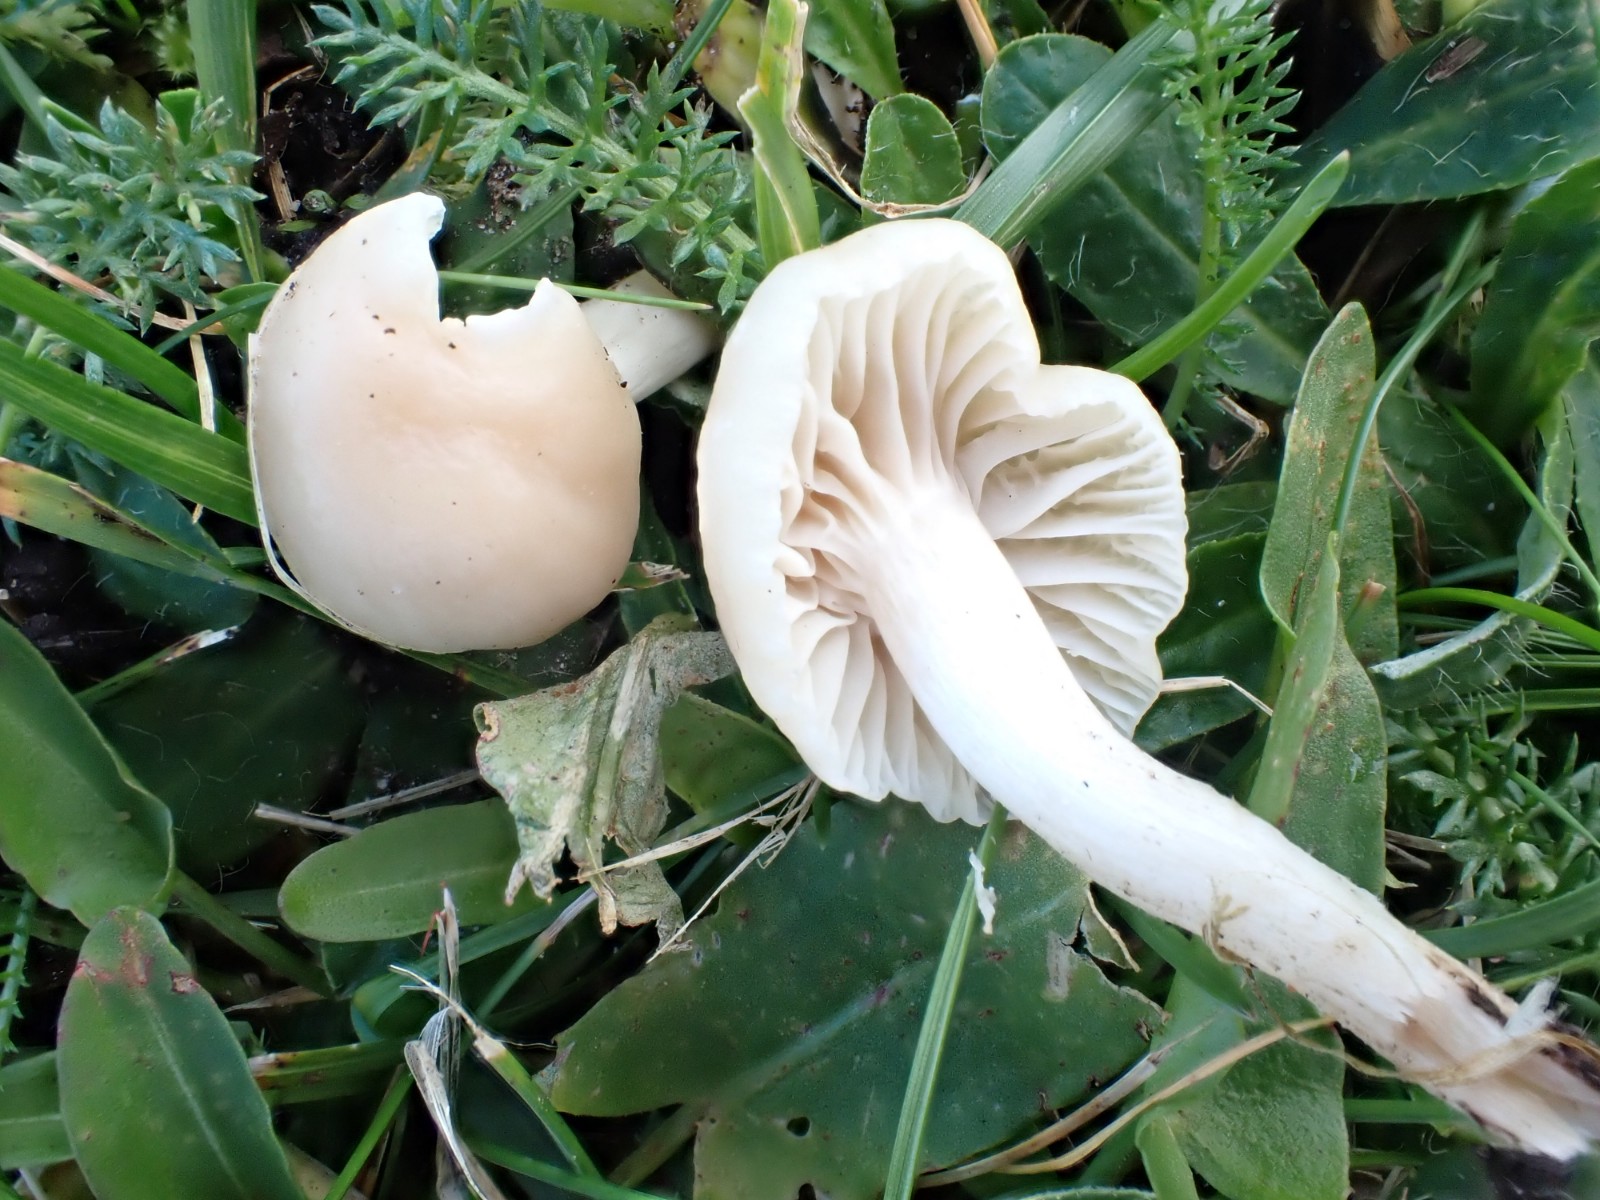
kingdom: Fungi
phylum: Basidiomycota
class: Agaricomycetes
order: Agaricales
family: Hygrophoraceae
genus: Cuphophyllus
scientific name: Cuphophyllus
